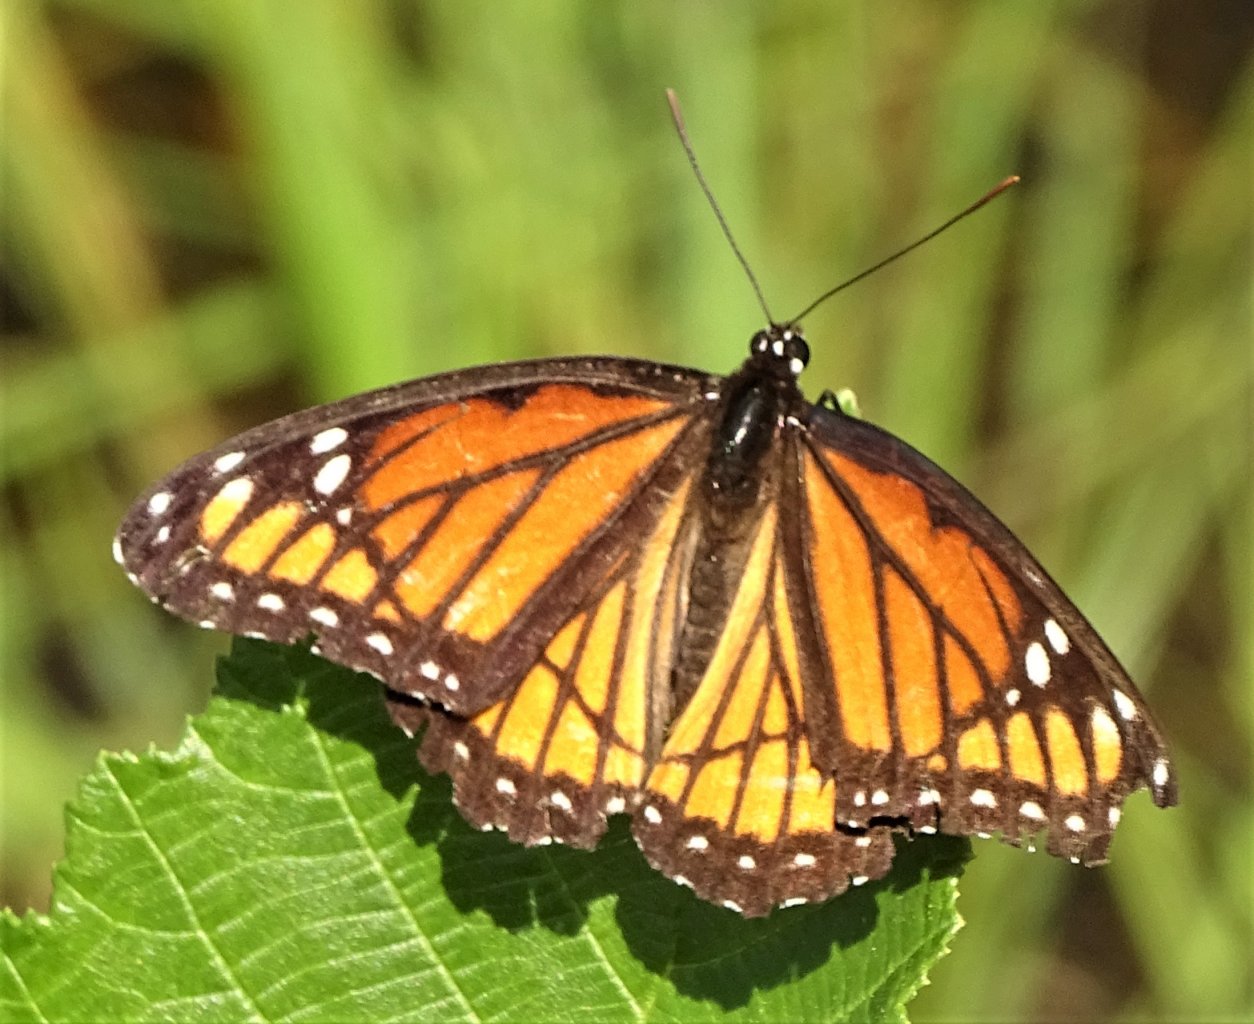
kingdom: Animalia
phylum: Arthropoda
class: Insecta
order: Lepidoptera
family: Nymphalidae
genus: Limenitis
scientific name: Limenitis archippus
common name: Viceroy
